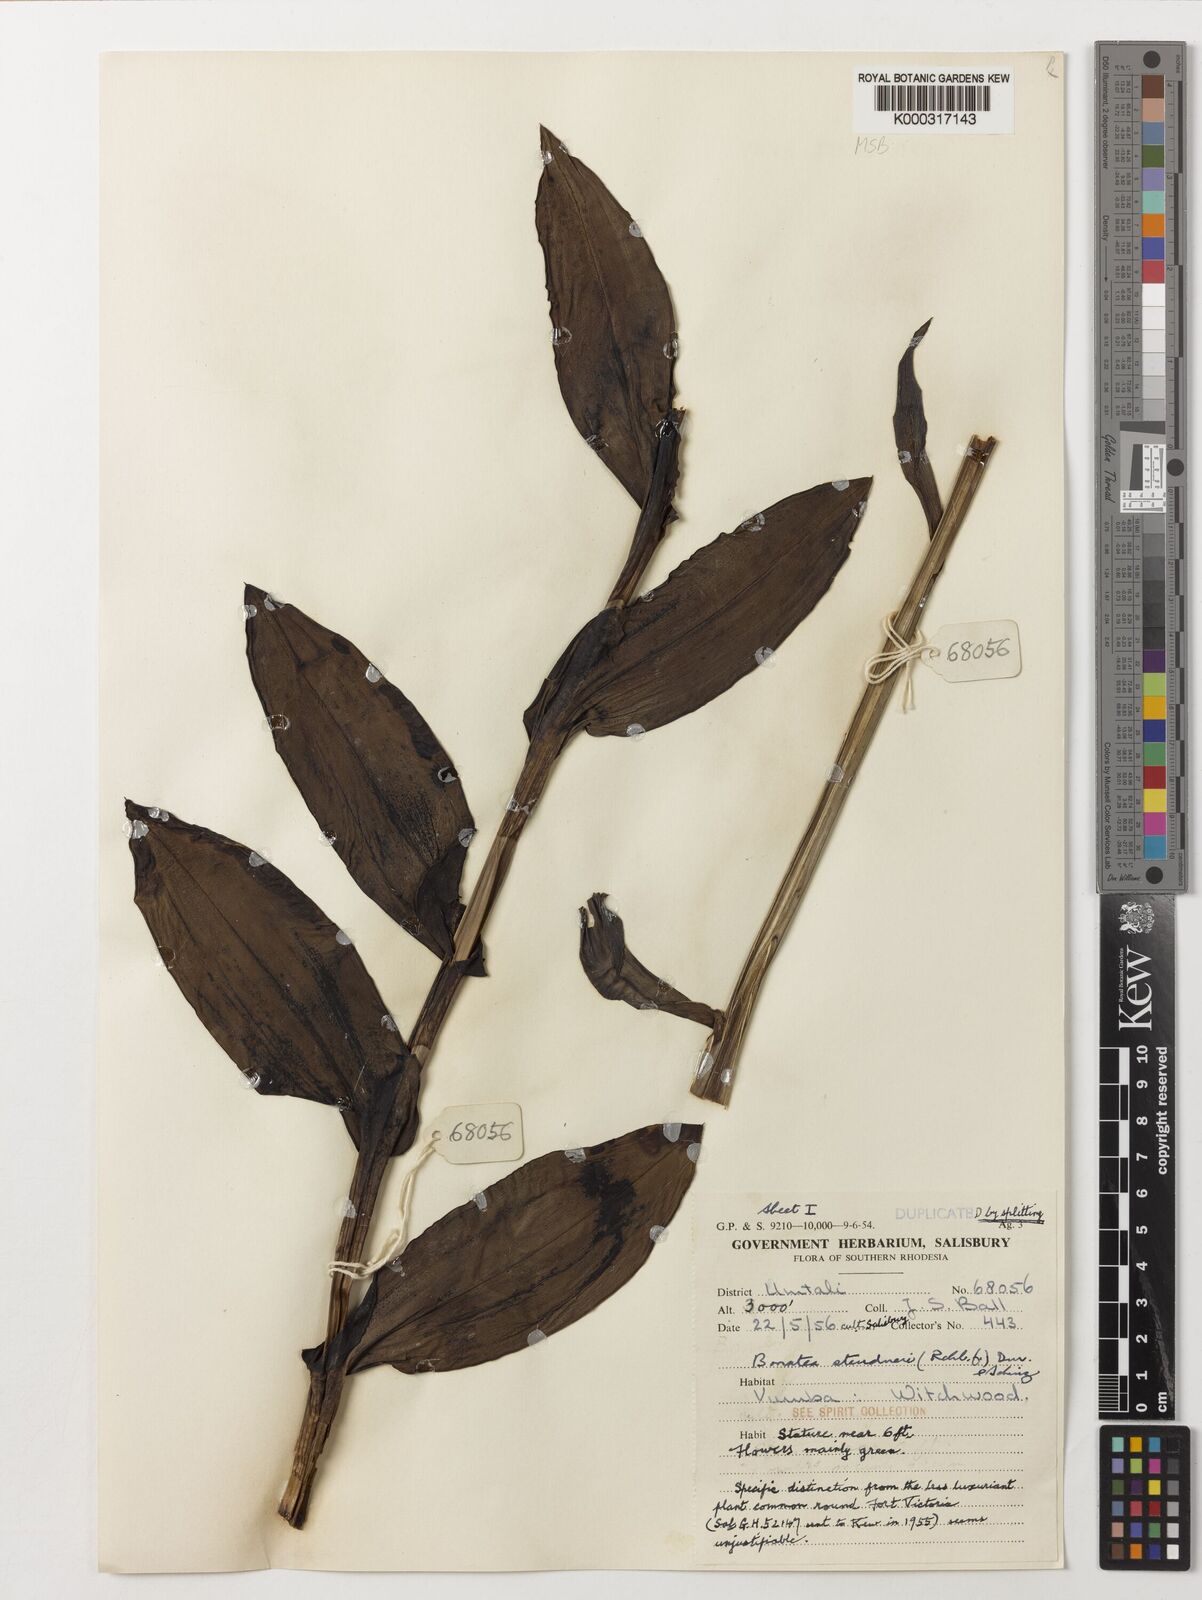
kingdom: Plantae
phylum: Tracheophyta
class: Liliopsida
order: Asparagales
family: Orchidaceae
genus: Bonatea
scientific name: Bonatea steudneri
